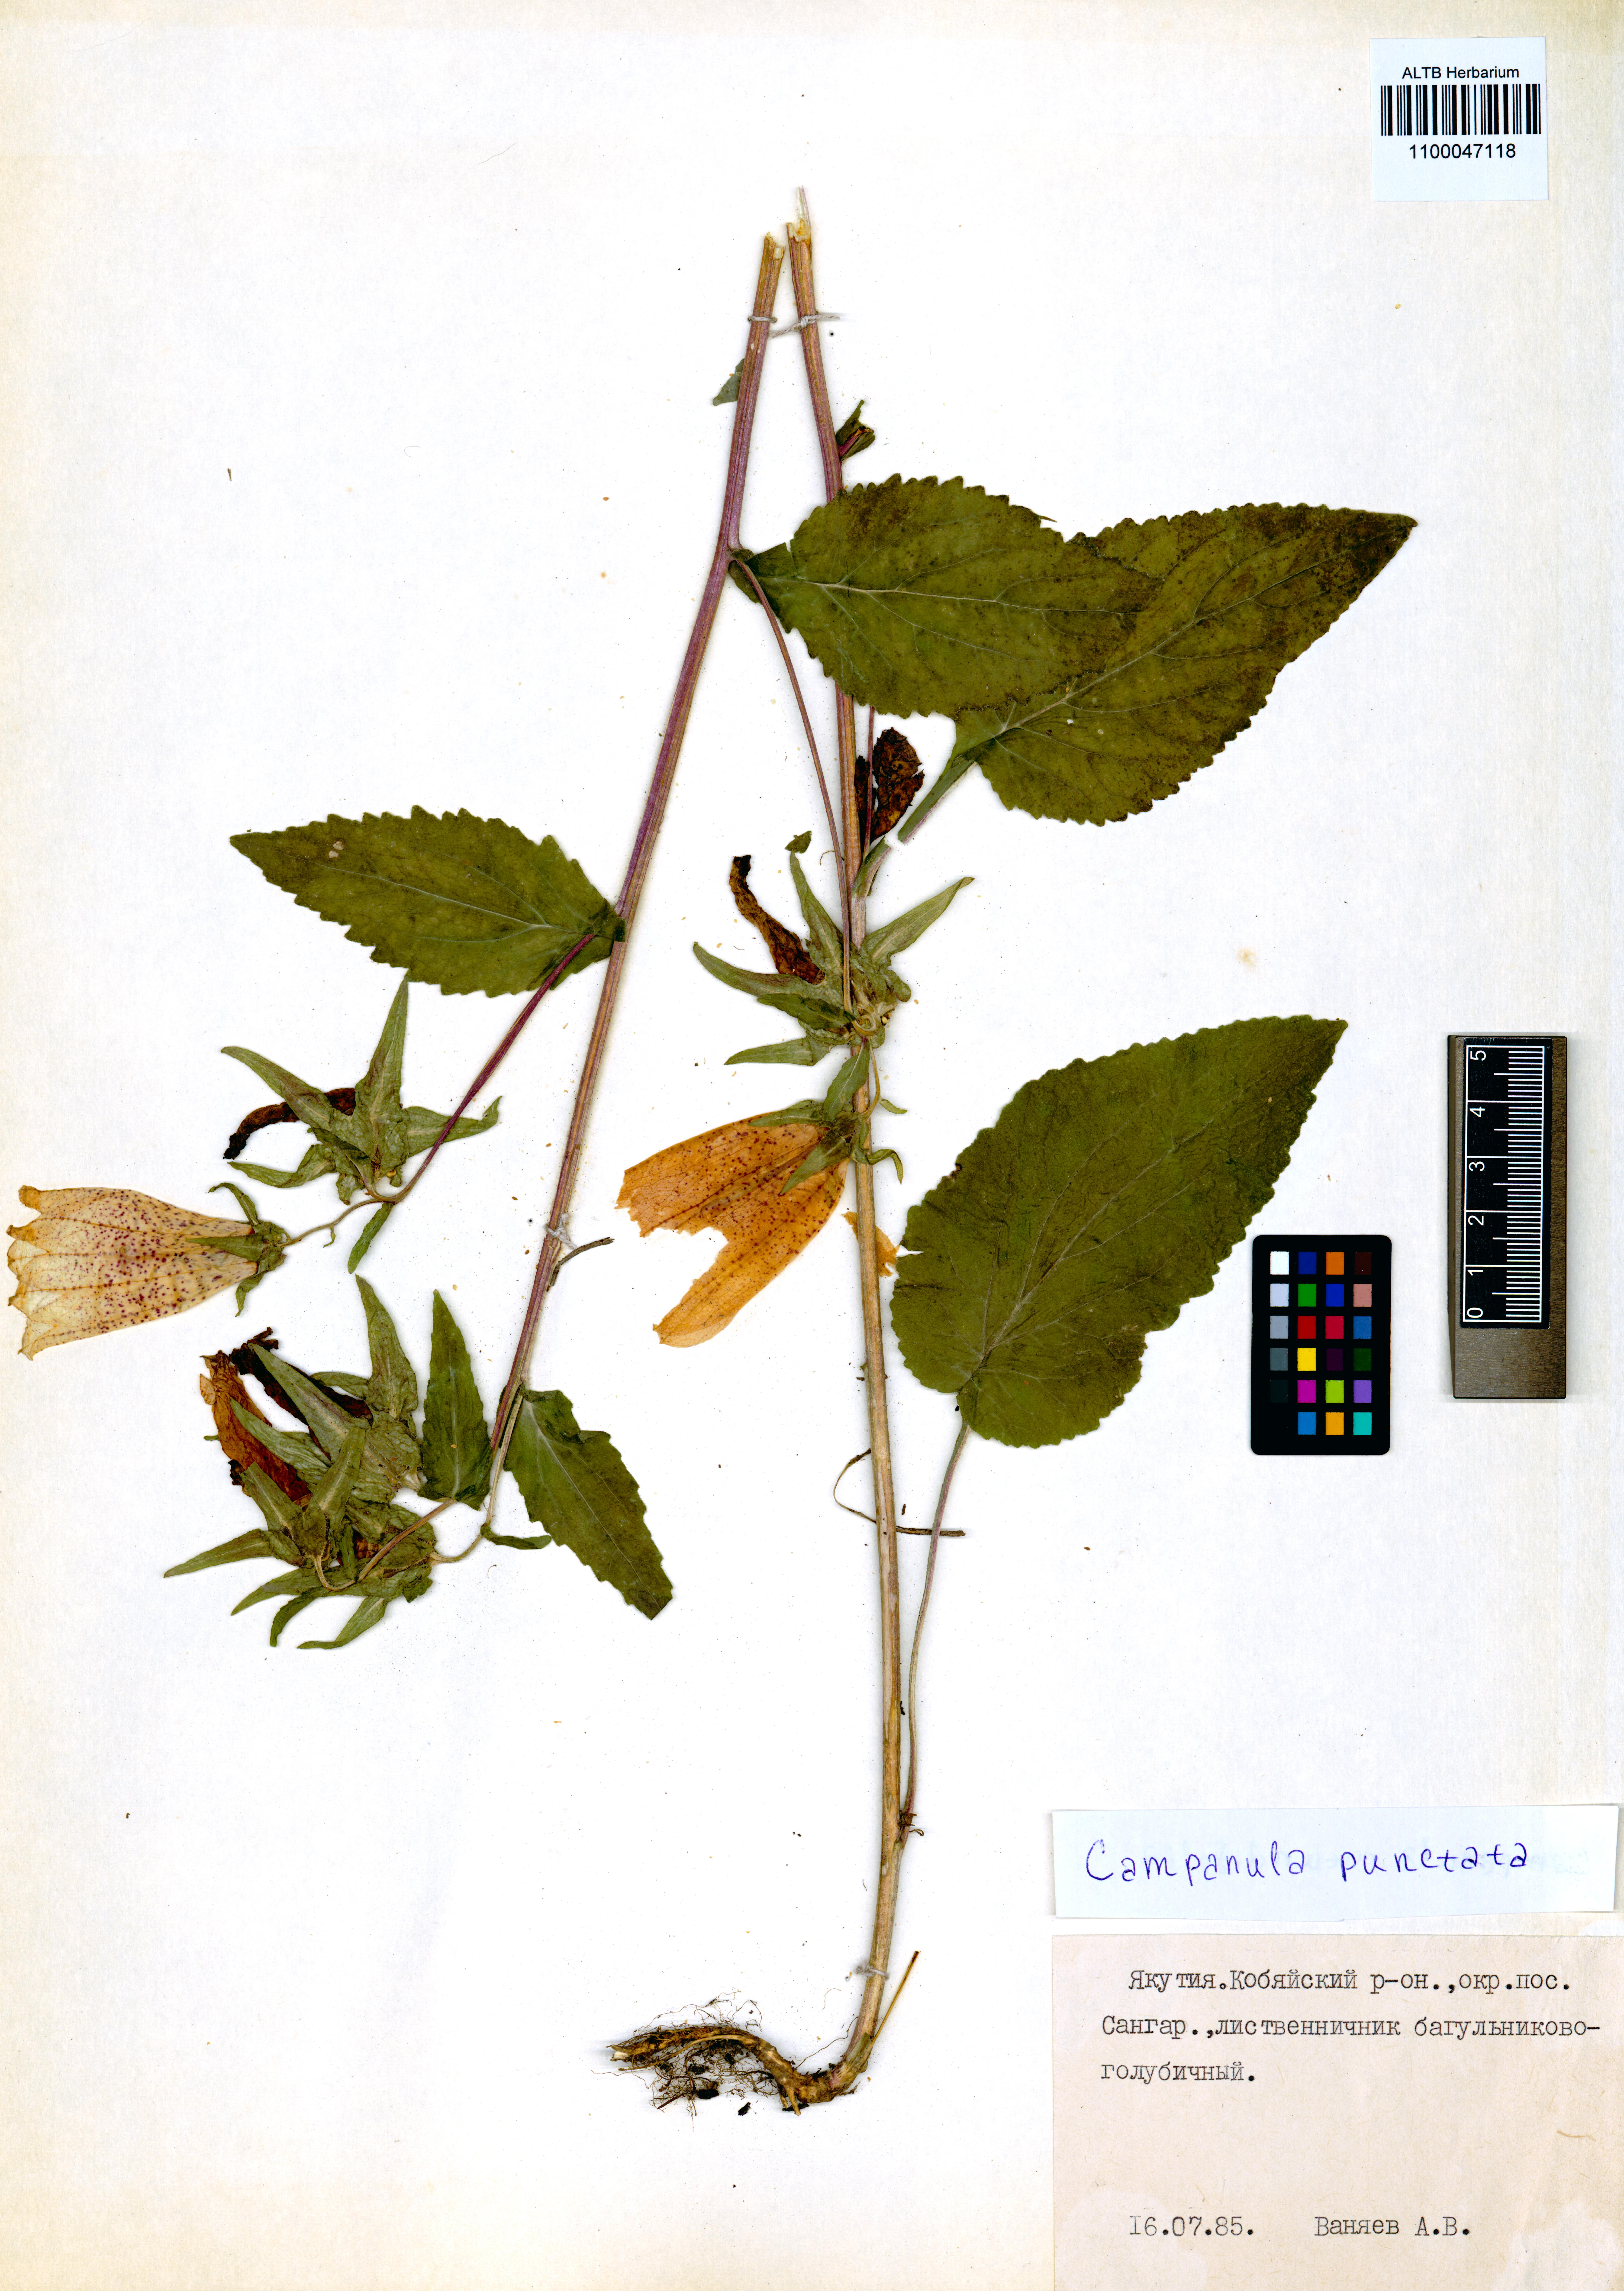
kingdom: Plantae
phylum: Tracheophyta
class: Magnoliopsida
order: Asterales
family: Campanulaceae
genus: Campanula
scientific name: Campanula punctata
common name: Spotted bellflower
